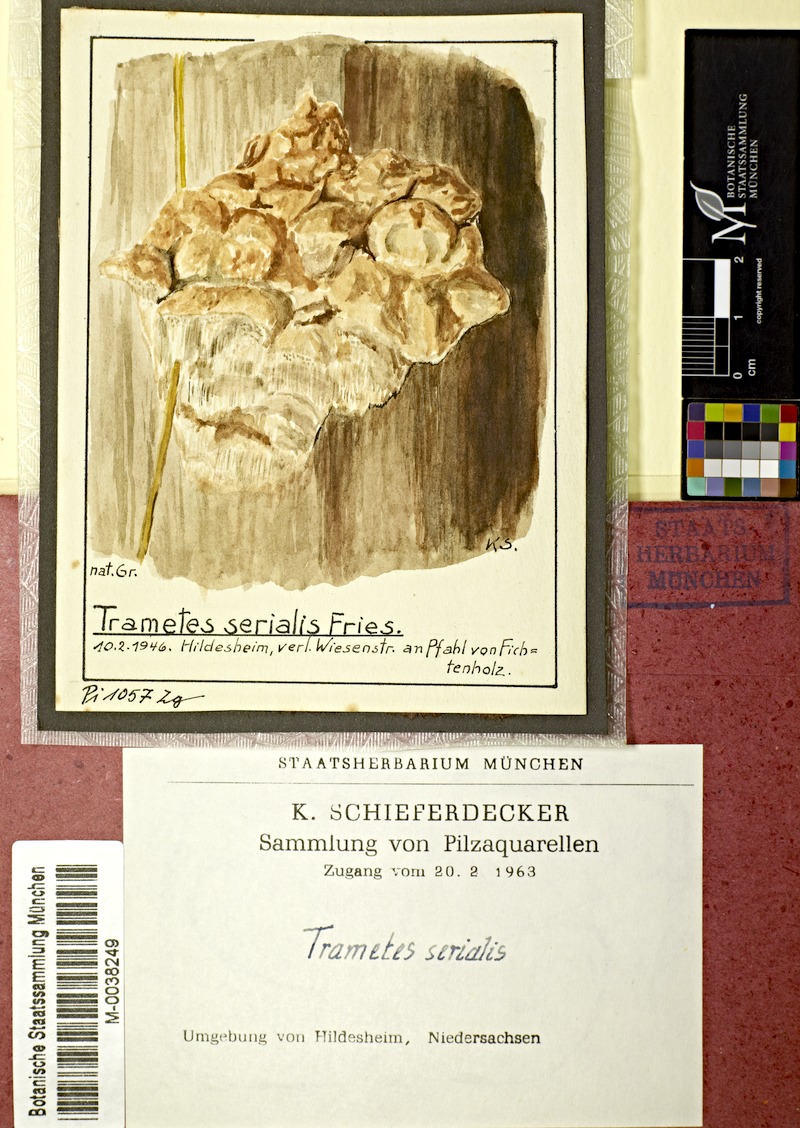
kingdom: Plantae
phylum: Tracheophyta
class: Pinopsida
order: Pinales
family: Pinaceae
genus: Picea
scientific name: Picea abies
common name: Norway spruce
